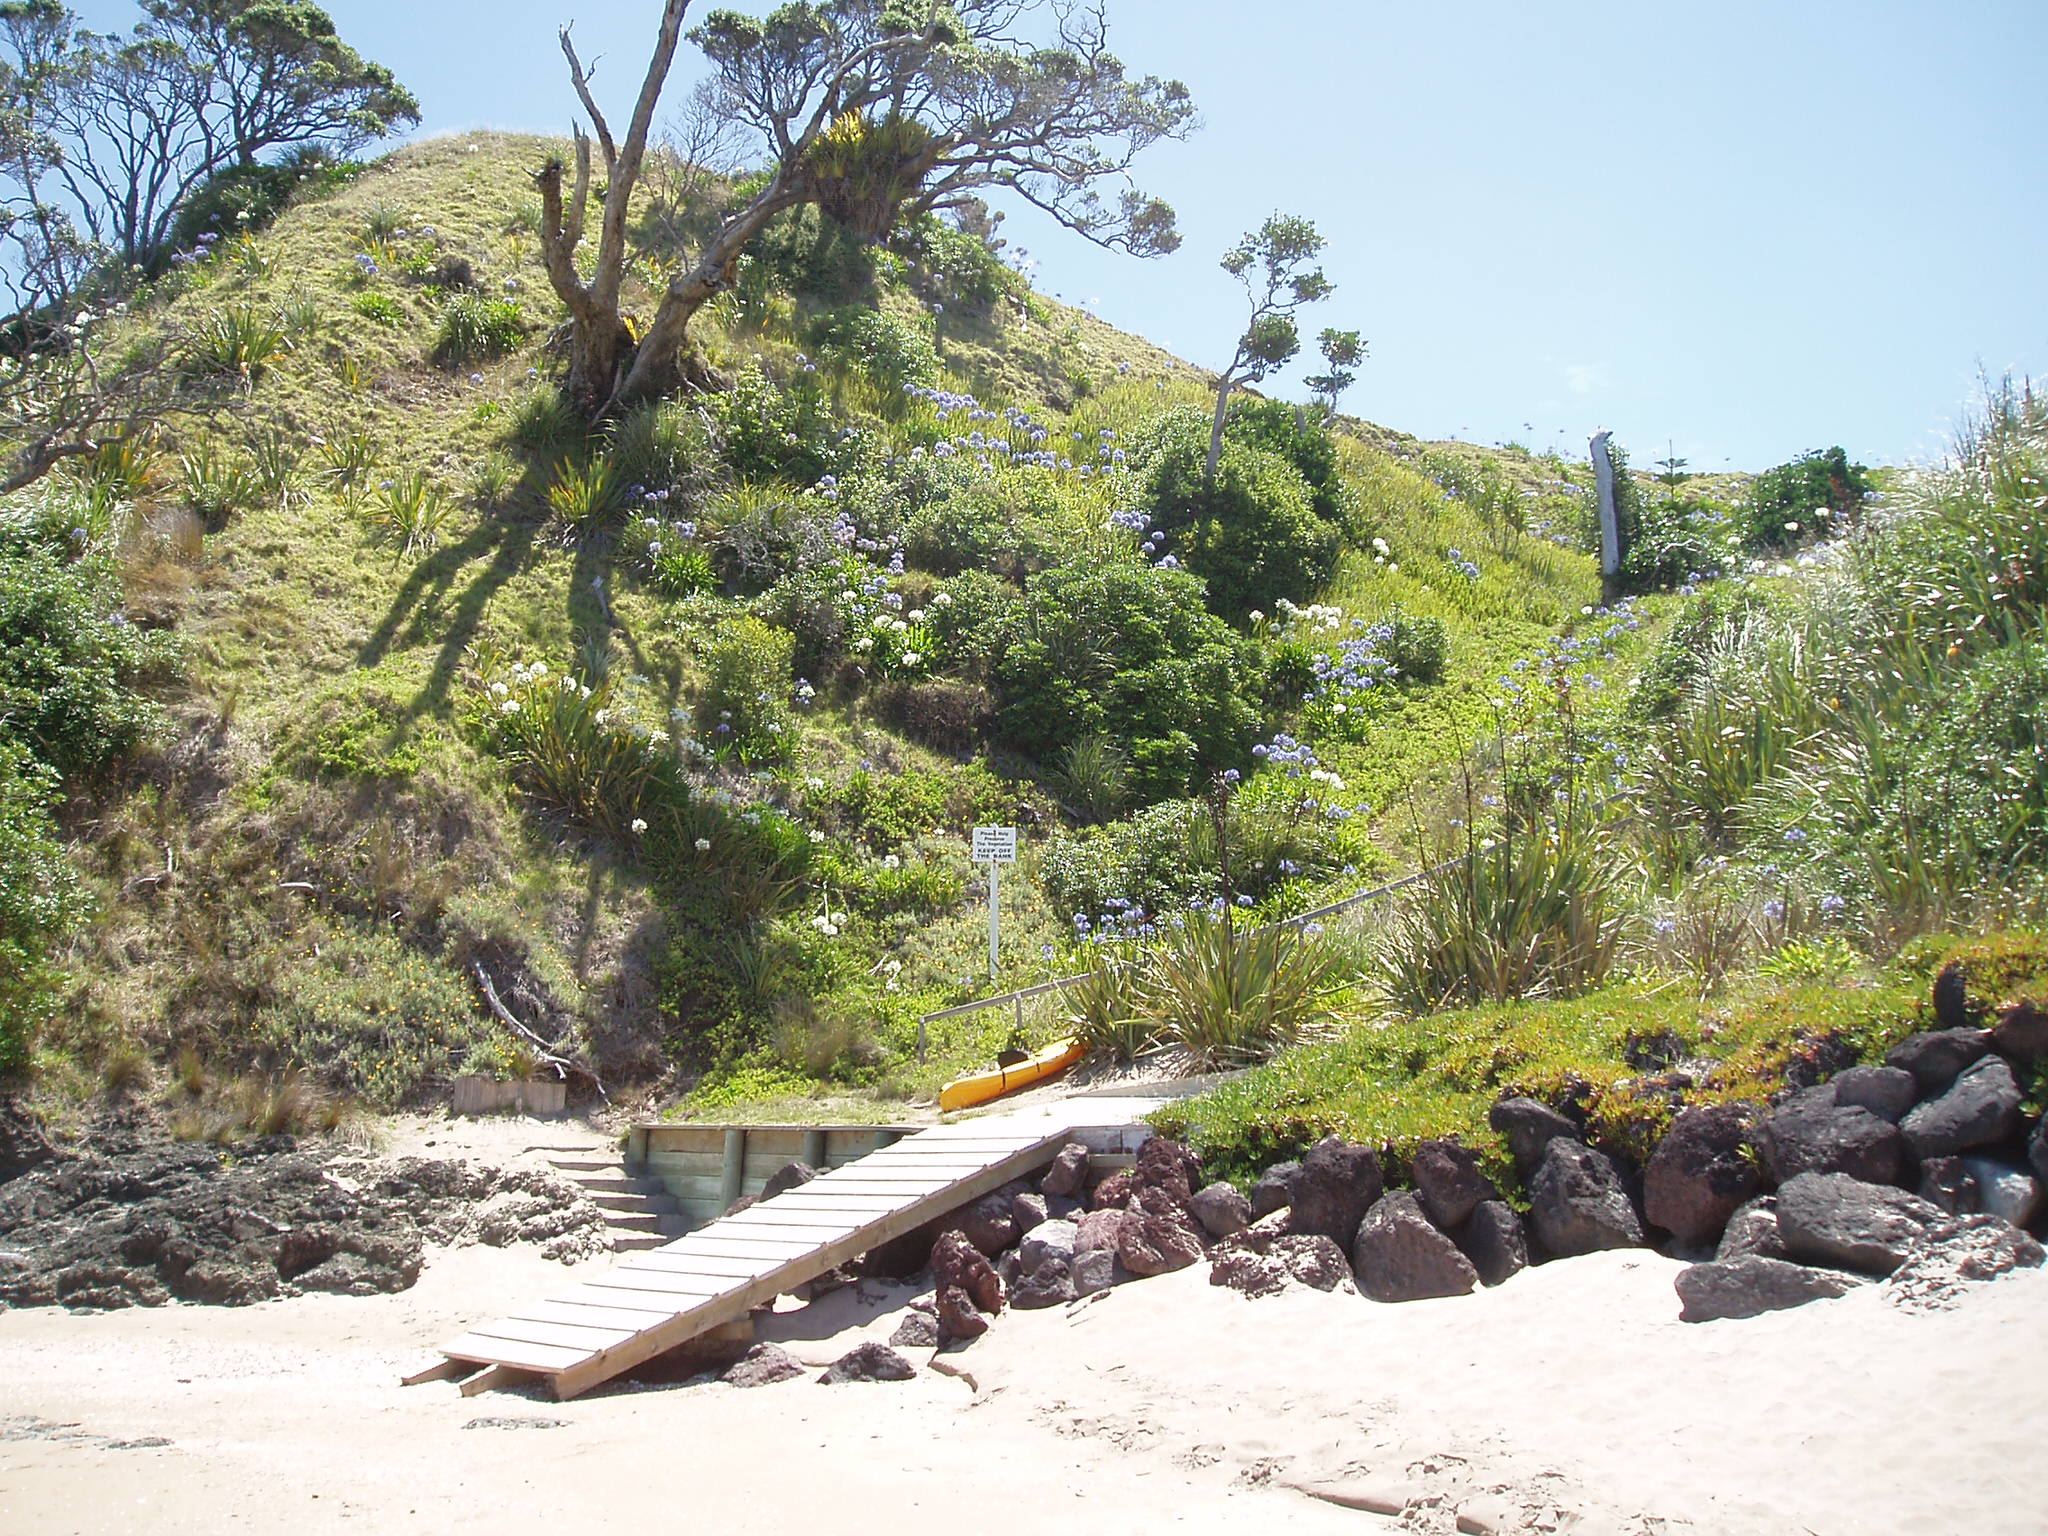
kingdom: Plantae
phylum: Tracheophyta
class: Magnoliopsida
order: Asterales
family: Asteraceae
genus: Osteospermum
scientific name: Osteospermum fruticosum
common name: Shrubby daisybush
